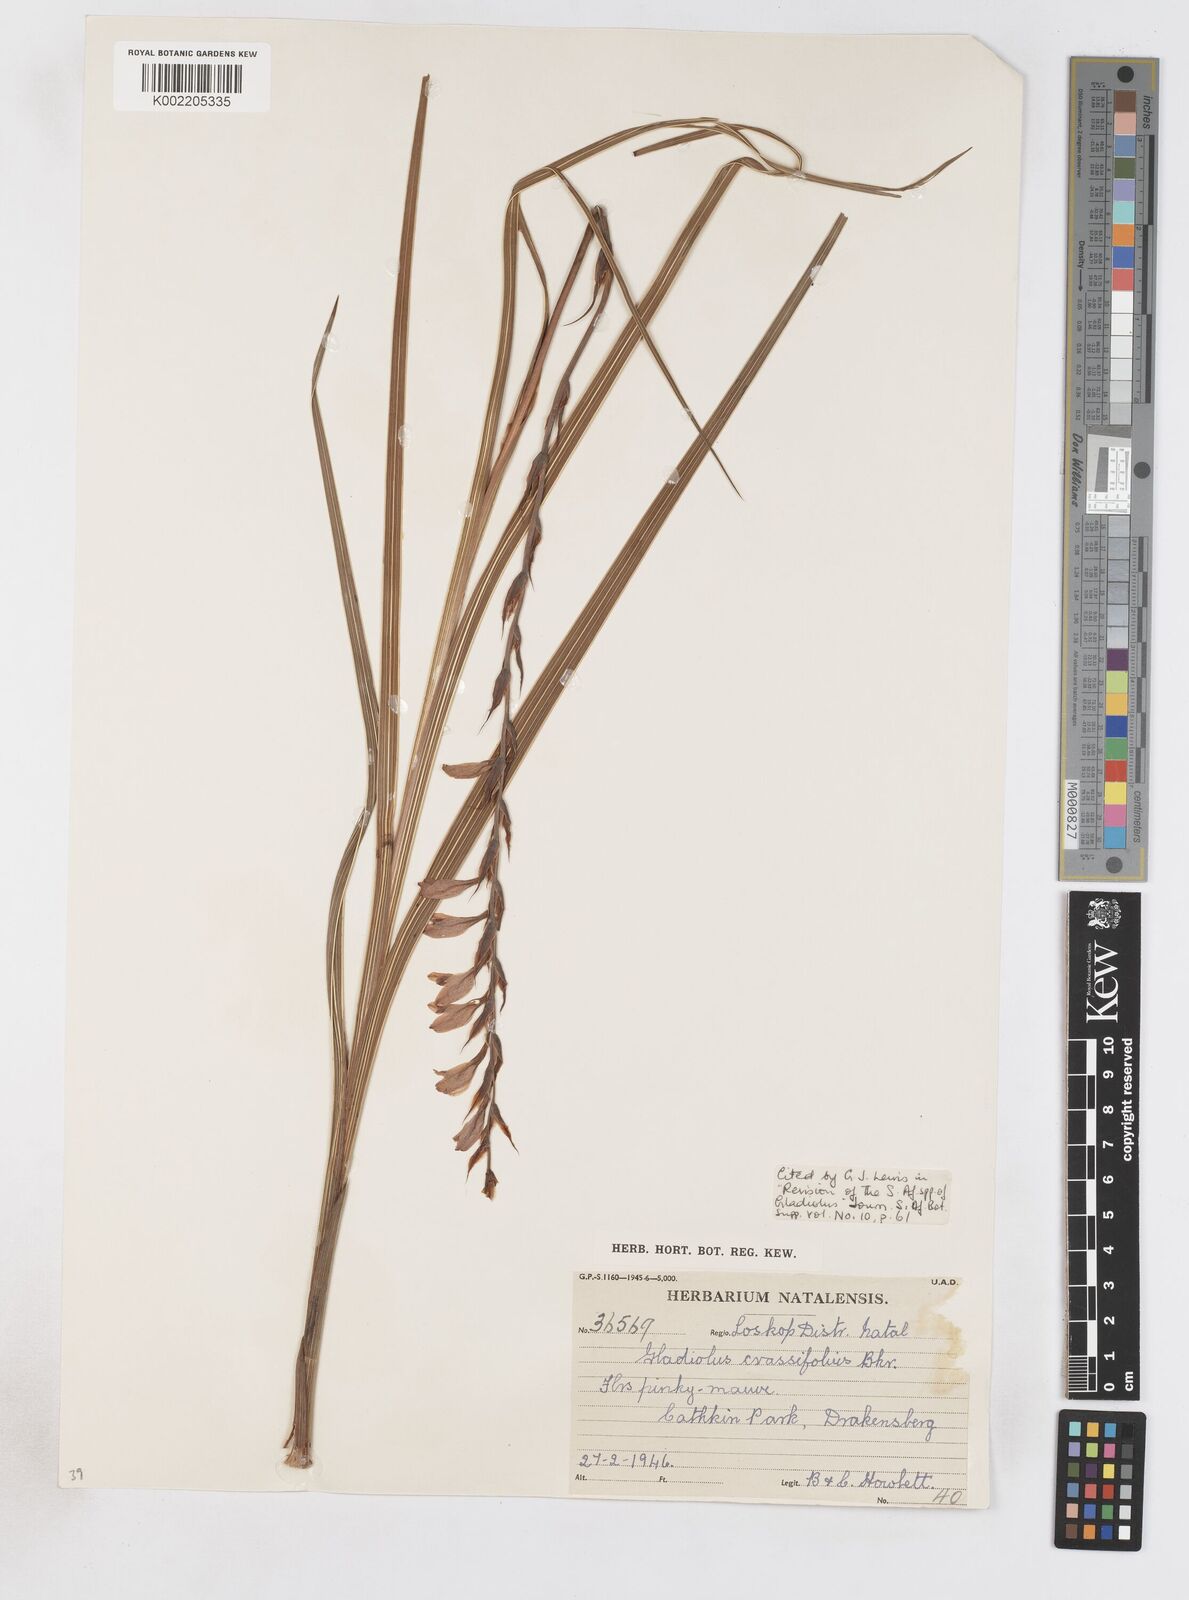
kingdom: Plantae
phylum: Tracheophyta
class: Liliopsida
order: Asparagales
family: Iridaceae
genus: Gladiolus
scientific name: Gladiolus crassifolius
